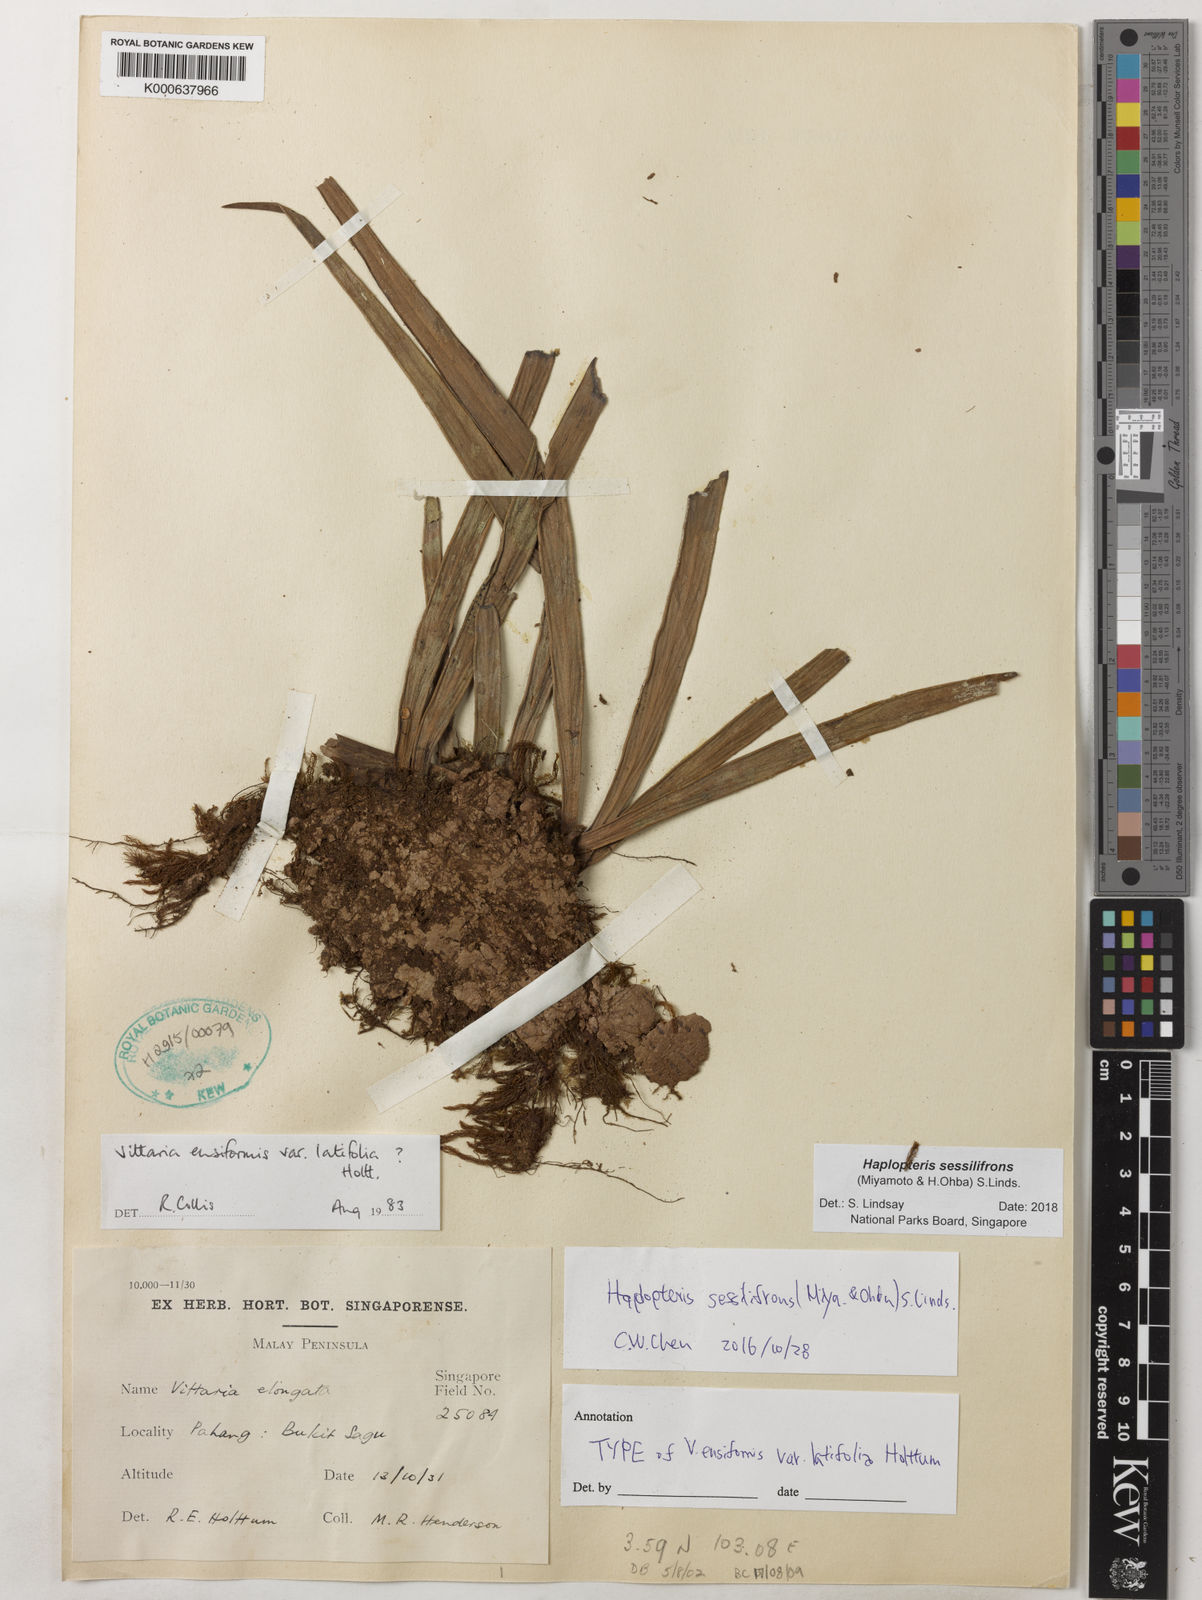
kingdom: Plantae
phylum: Tracheophyta
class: Polypodiopsida
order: Polypodiales
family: Pteridaceae
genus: Haplopteris
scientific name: Haplopteris sessilifrons
